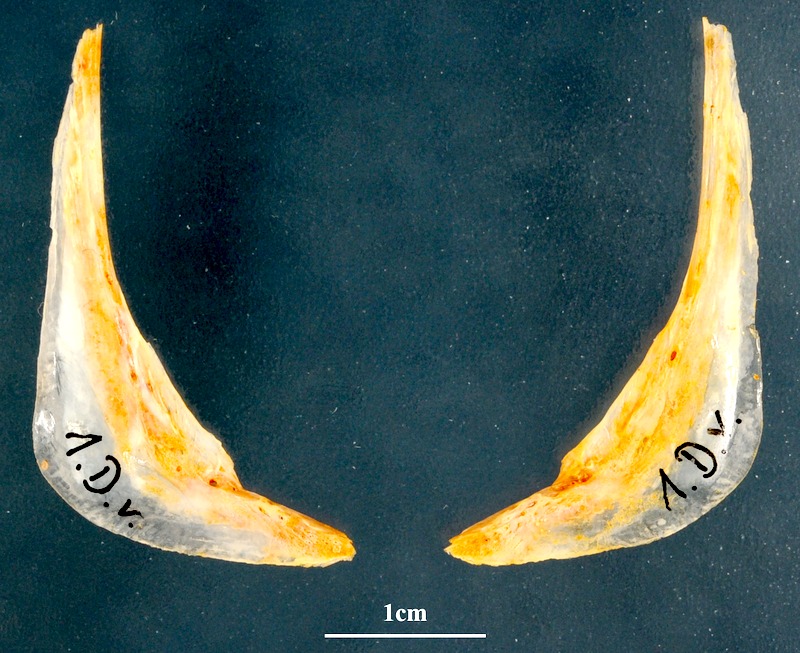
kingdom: Animalia
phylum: Chordata
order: Perciformes
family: Sparidae
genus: Diplodus
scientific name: Diplodus vulgaris
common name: Common two-banded seabream
